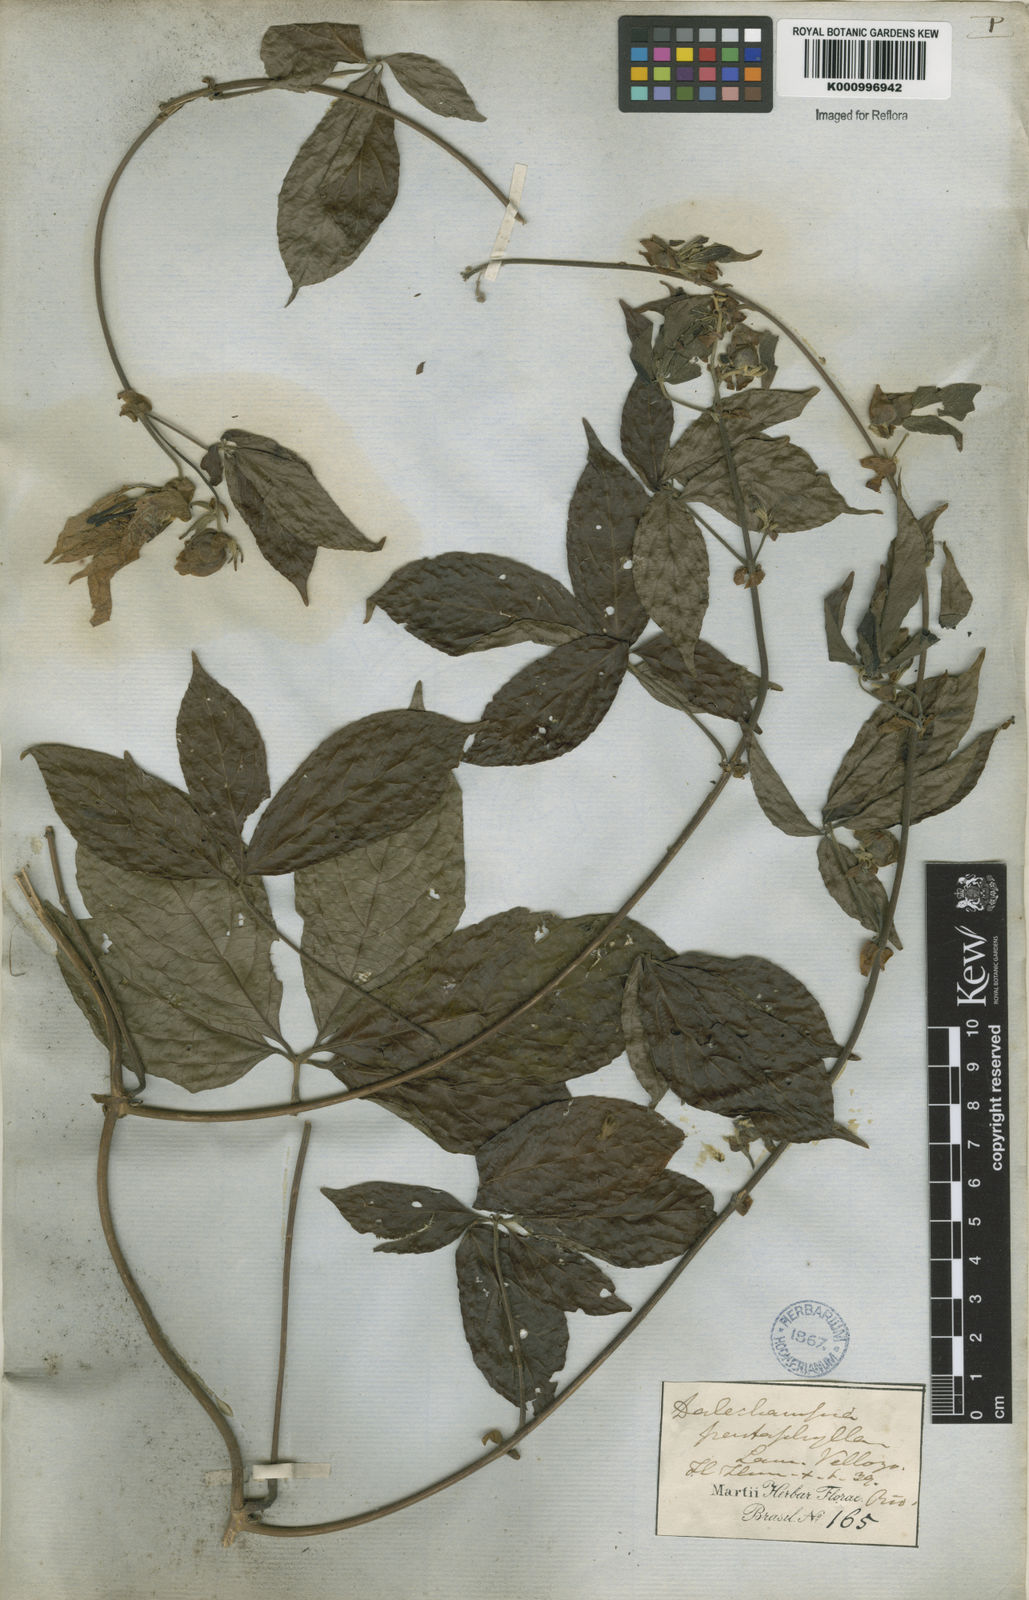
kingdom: Plantae
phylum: Tracheophyta
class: Magnoliopsida
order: Malpighiales
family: Euphorbiaceae
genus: Dalechampia
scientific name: Dalechampia pentaphylla
